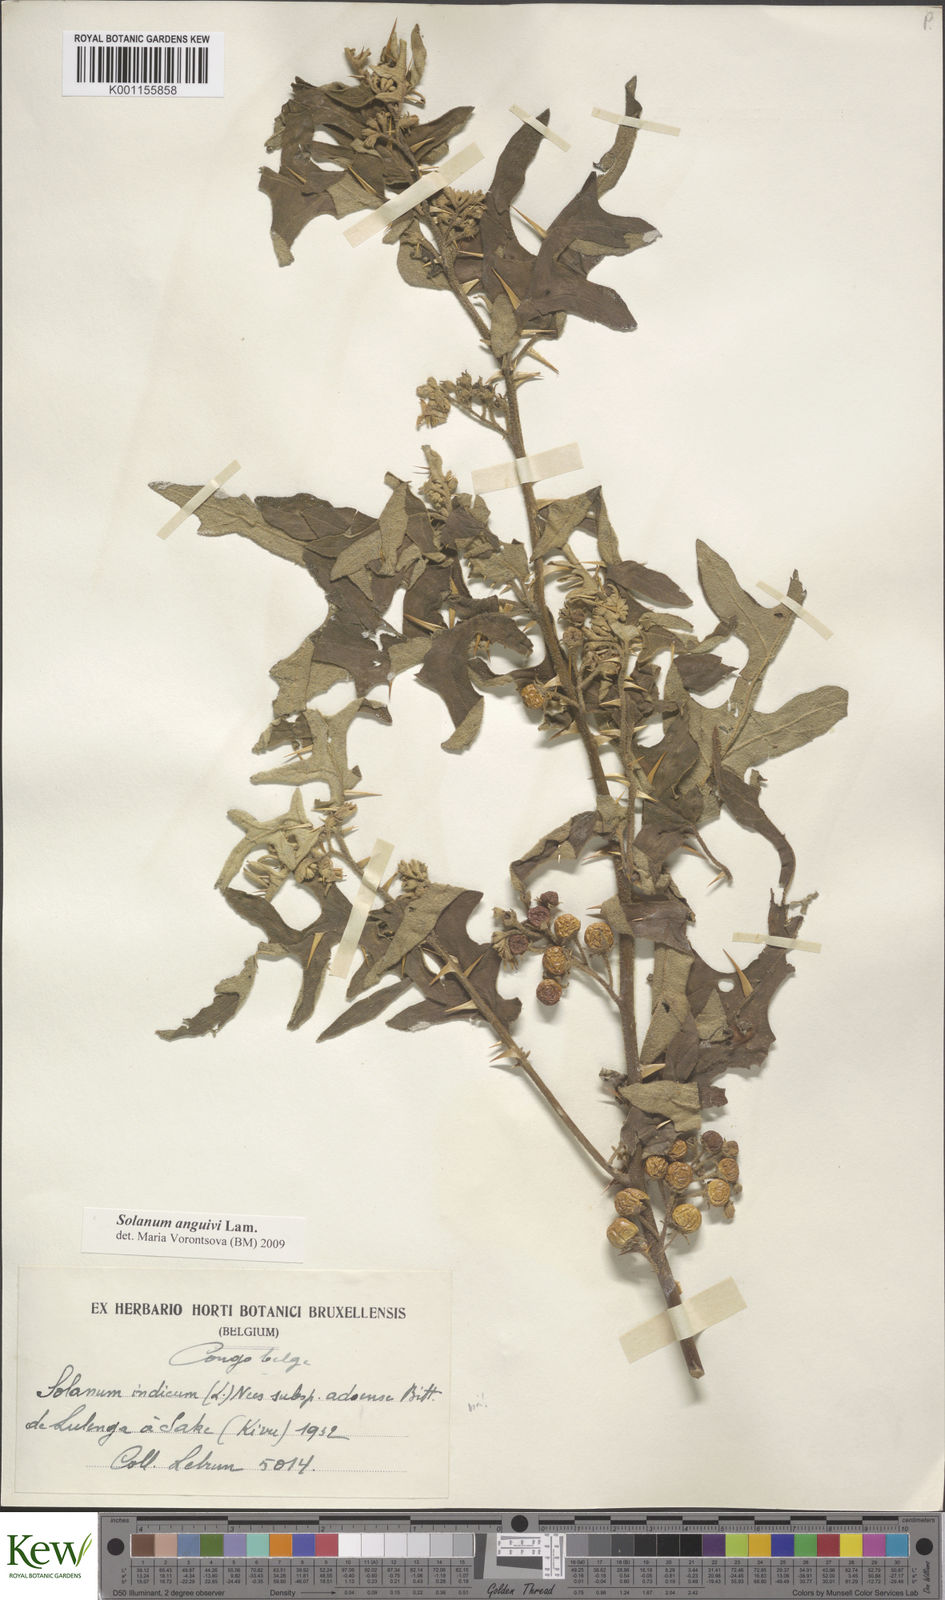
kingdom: Plantae
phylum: Tracheophyta
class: Magnoliopsida
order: Solanales
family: Solanaceae
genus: Solanum
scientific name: Solanum anguivi
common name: Forest bitterberry
